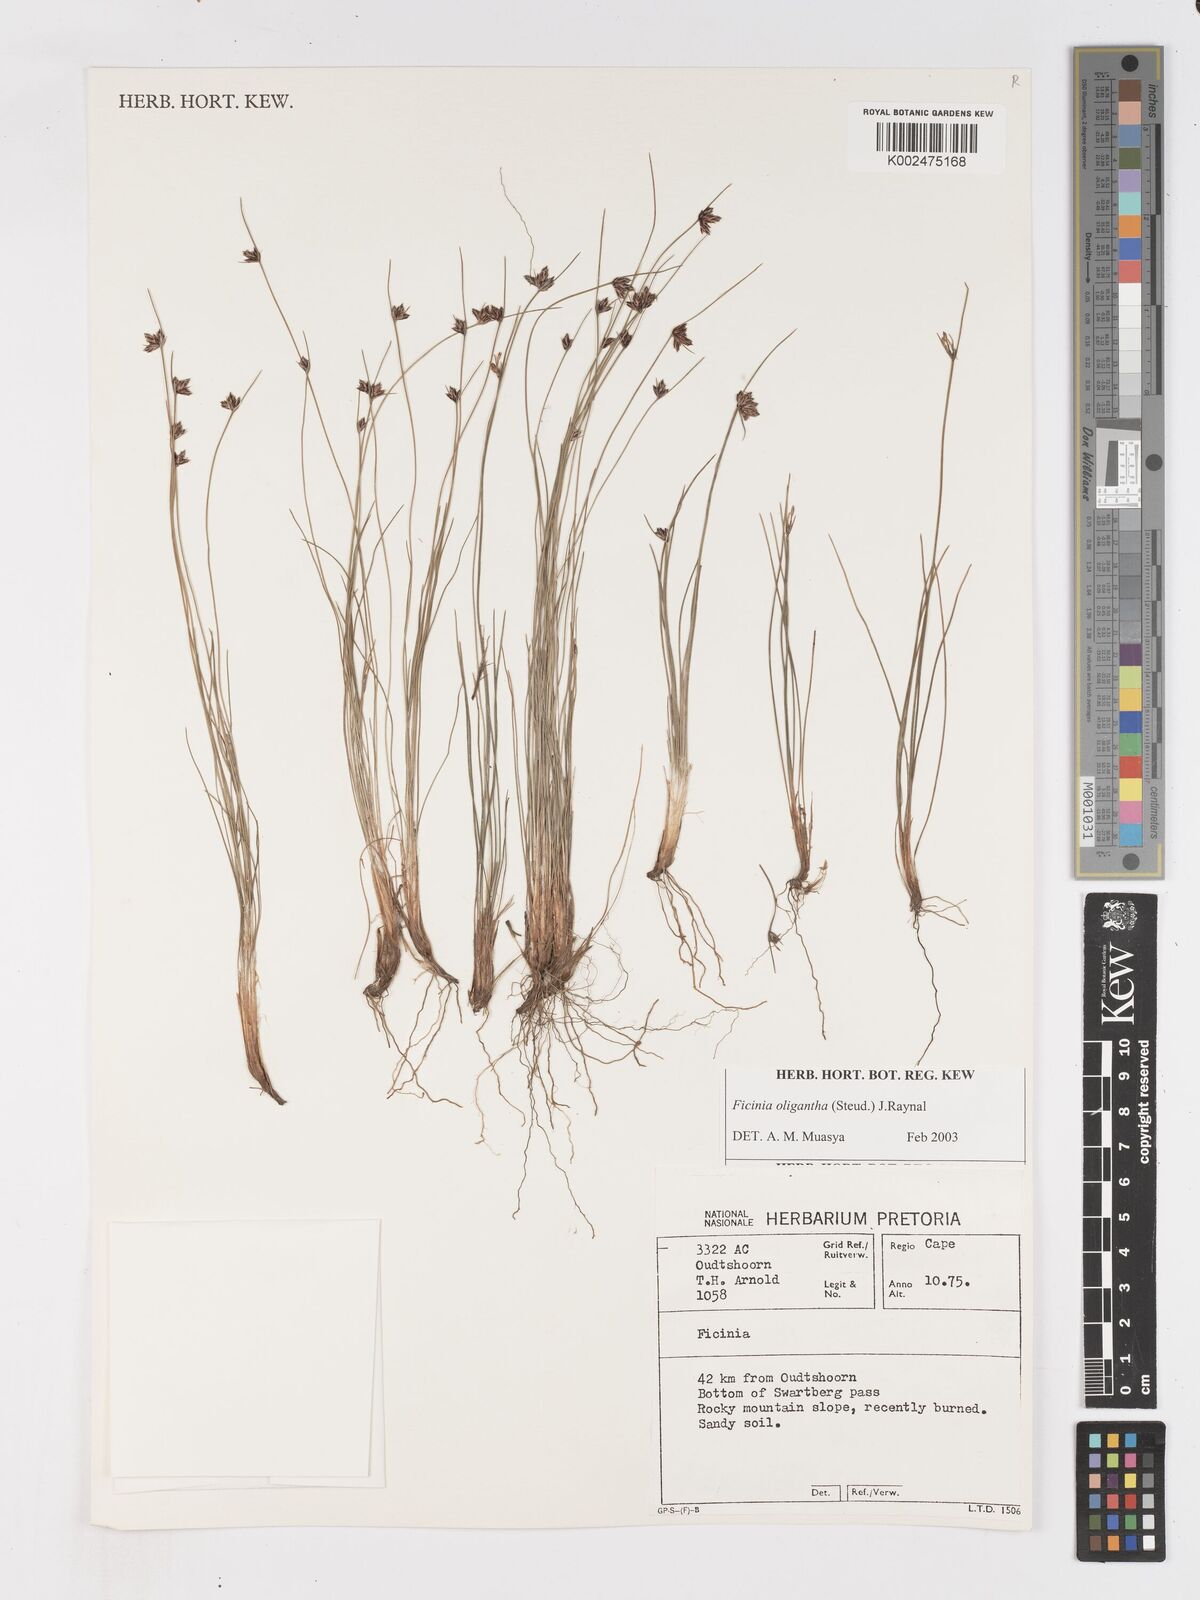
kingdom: Plantae
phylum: Tracheophyta
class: Liliopsida
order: Poales
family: Cyperaceae
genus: Ficinia
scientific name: Ficinia stolonifera
